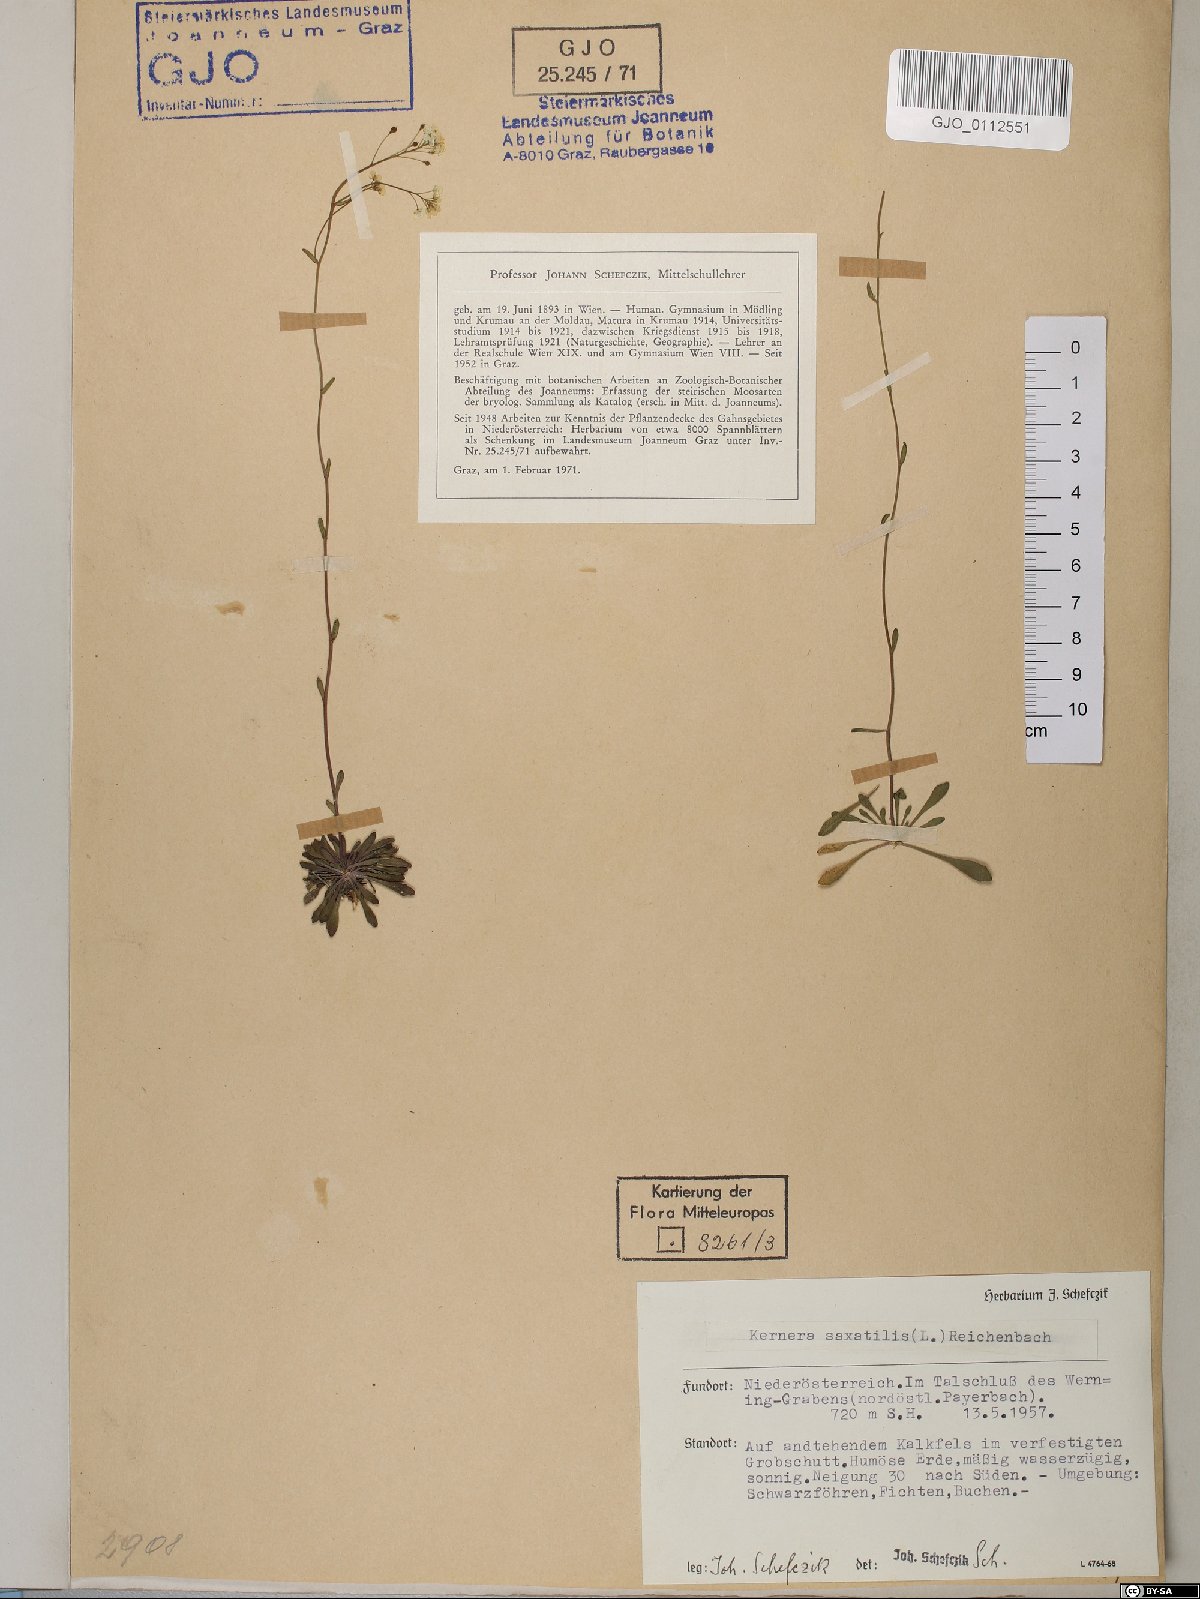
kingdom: Plantae
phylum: Tracheophyta
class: Magnoliopsida
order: Brassicales
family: Brassicaceae
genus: Kernera
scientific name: Kernera saxatilis
